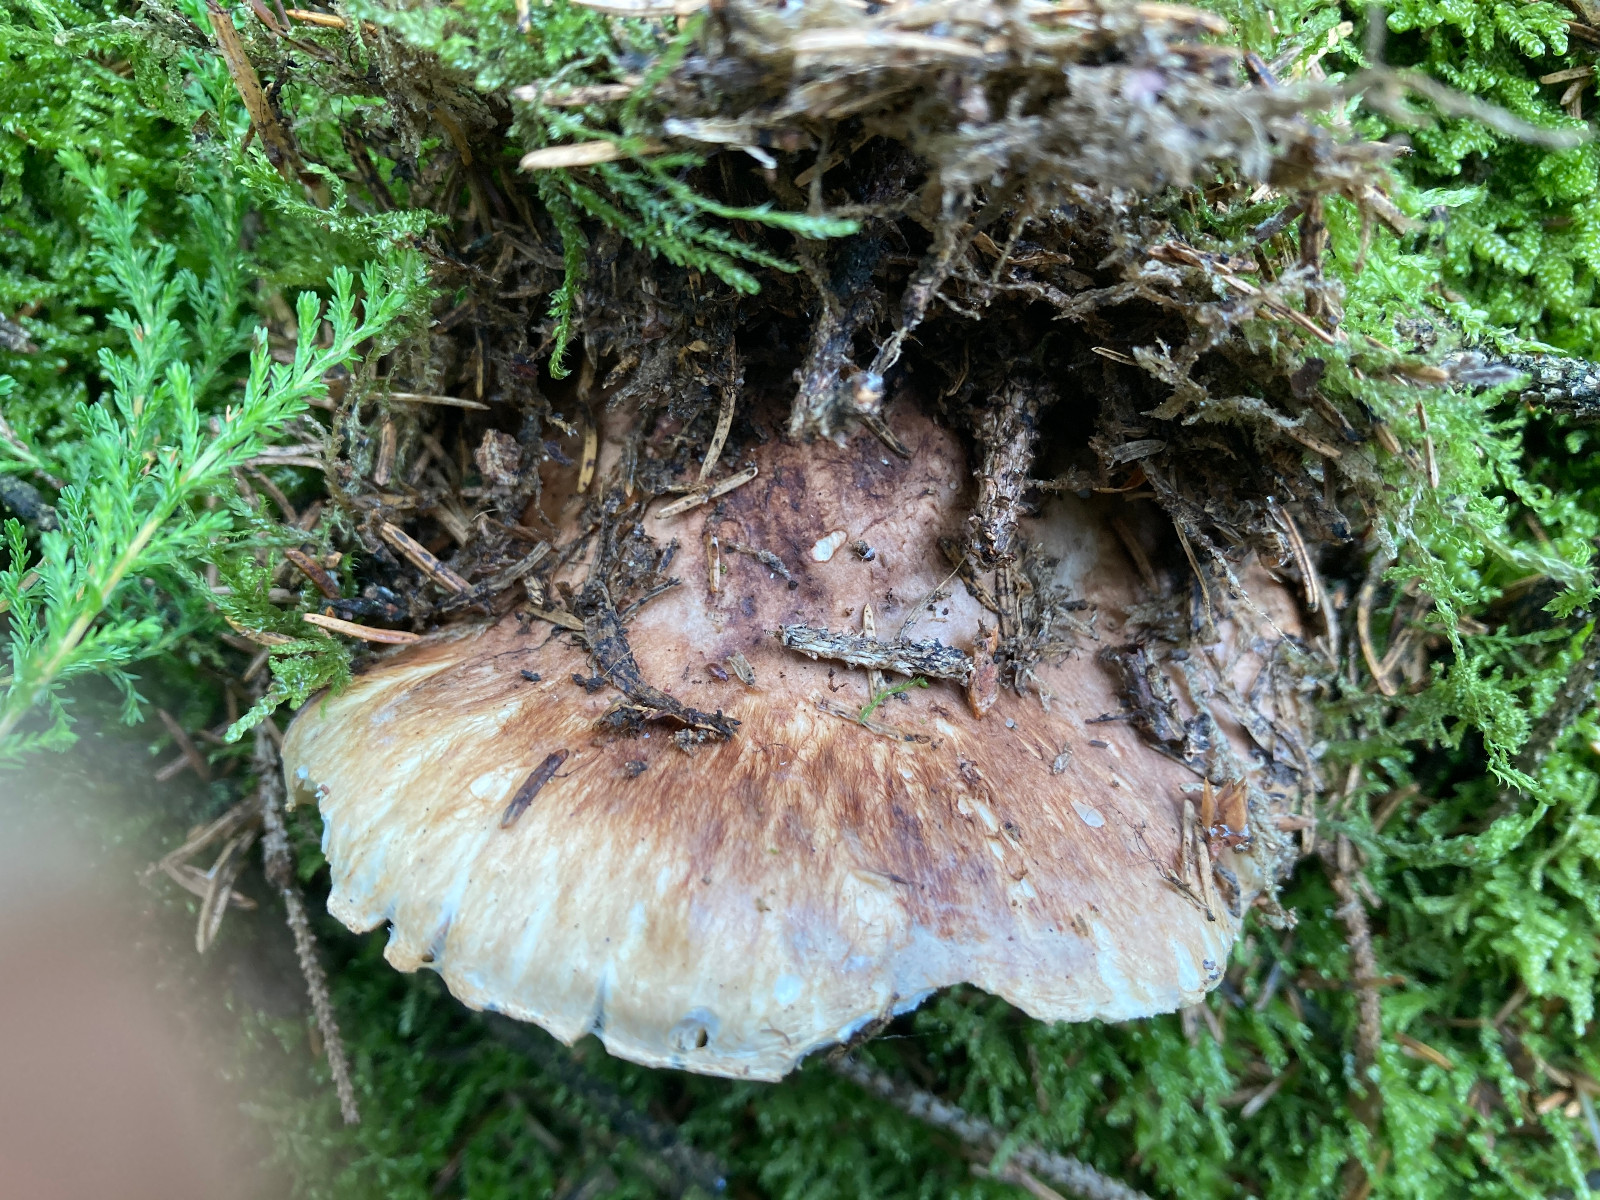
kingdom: Fungi
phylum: Basidiomycota
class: Agaricomycetes
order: Agaricales
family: Tricholomataceae
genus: Tricholoma
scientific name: Tricholoma matsutake
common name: duft-ridderhat
